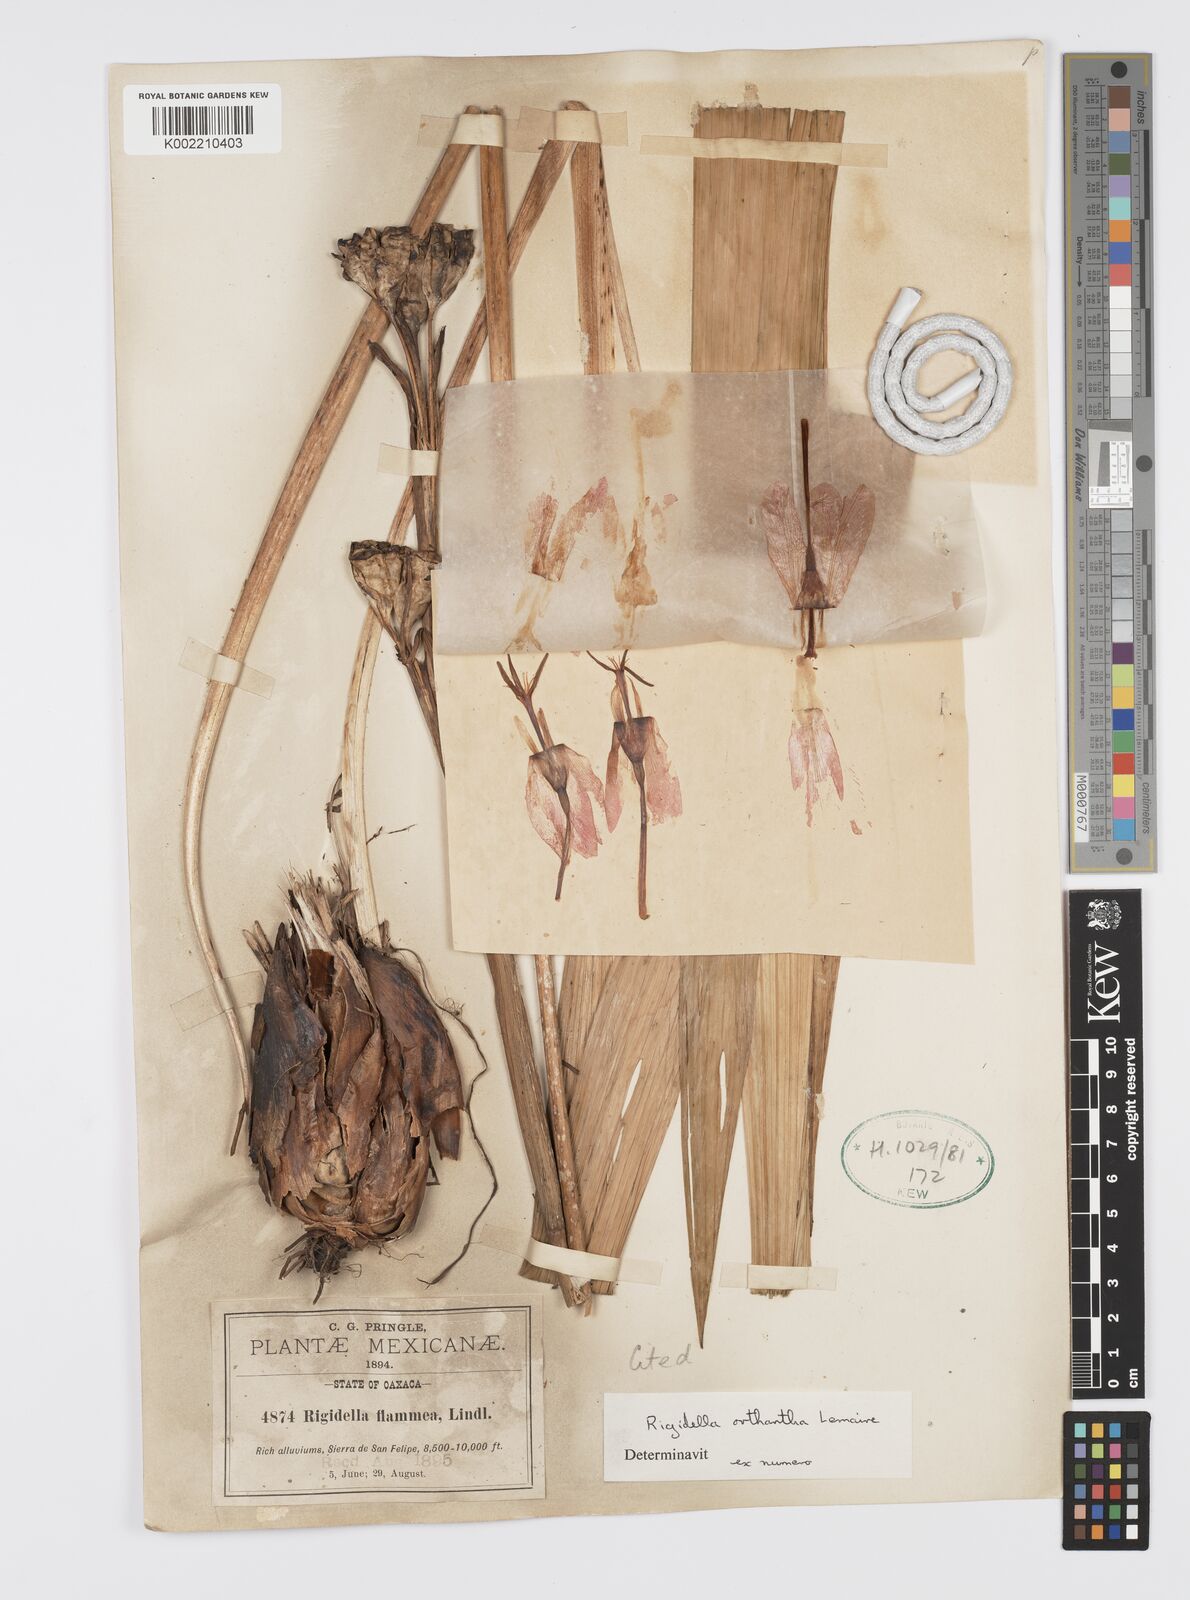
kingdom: Plantae
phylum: Tracheophyta
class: Liliopsida
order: Asparagales
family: Iridaceae
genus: Tigridia
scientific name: Tigridia orthantha
